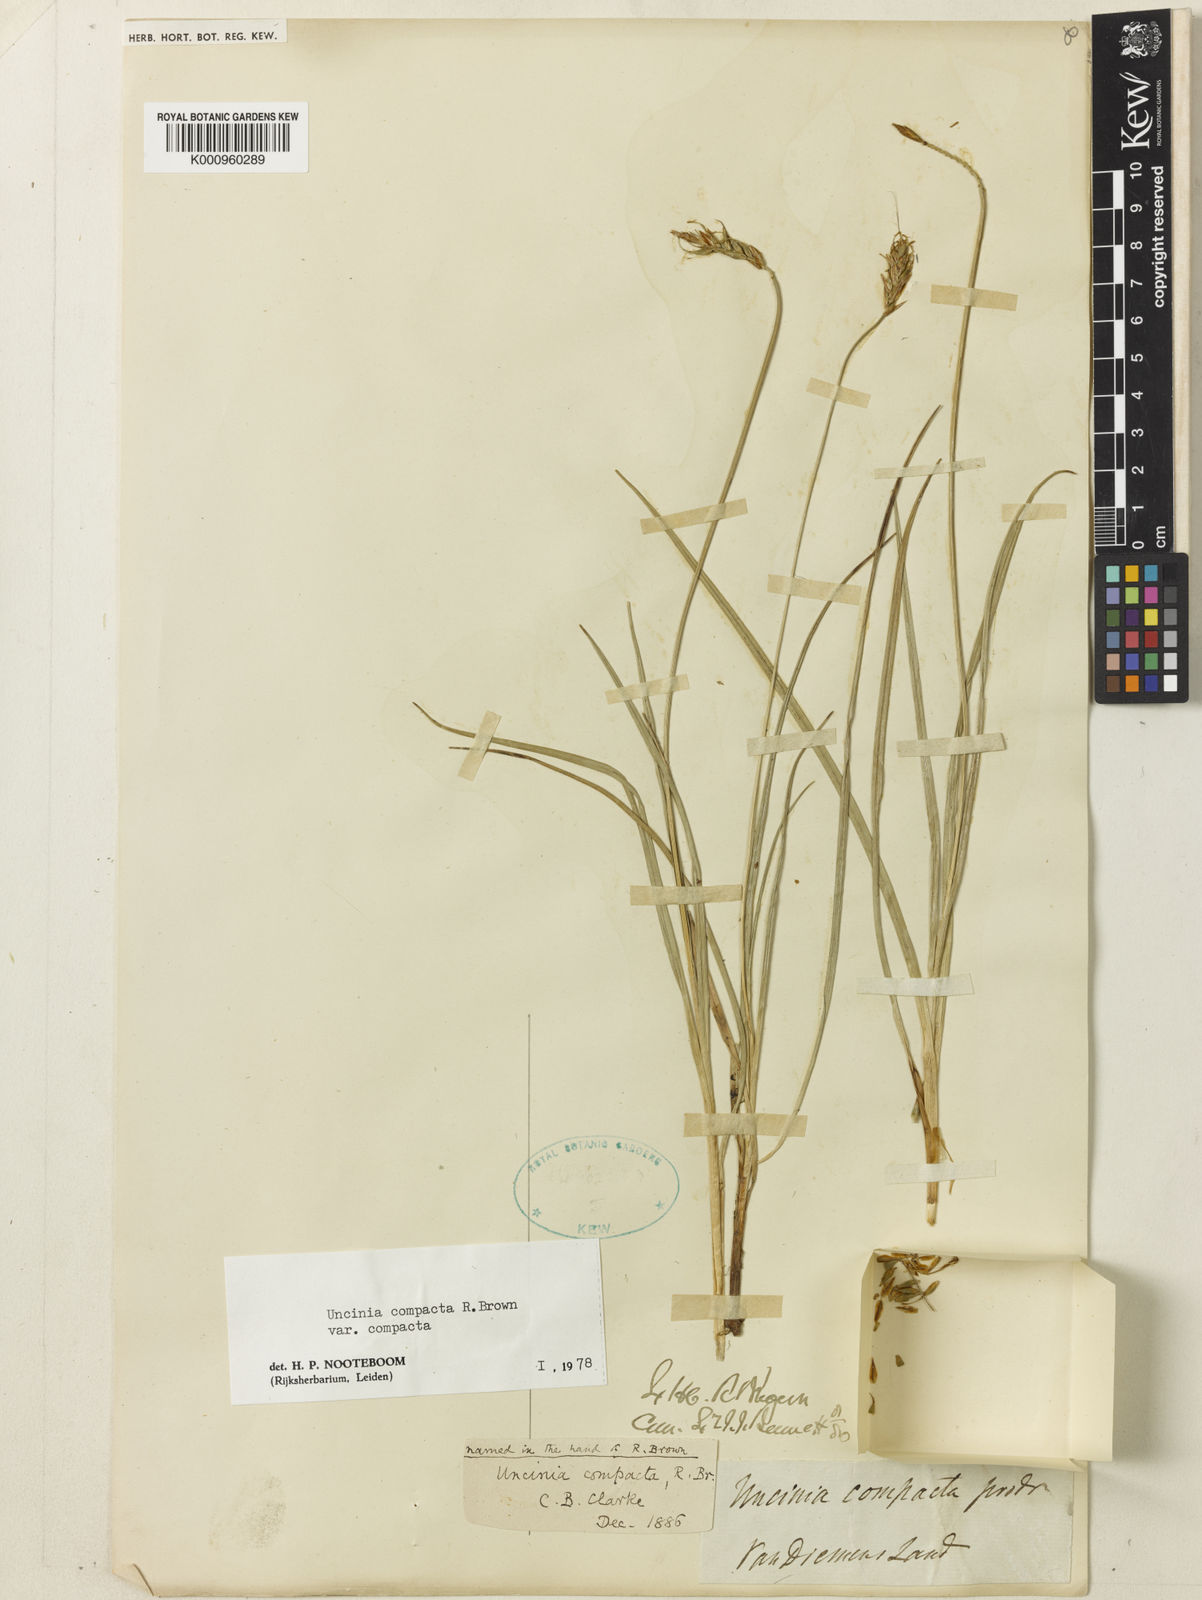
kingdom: Plantae
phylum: Tracheophyta
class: Liliopsida
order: Poales
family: Cyperaceae
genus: Carex
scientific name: Carex austrocompacta
